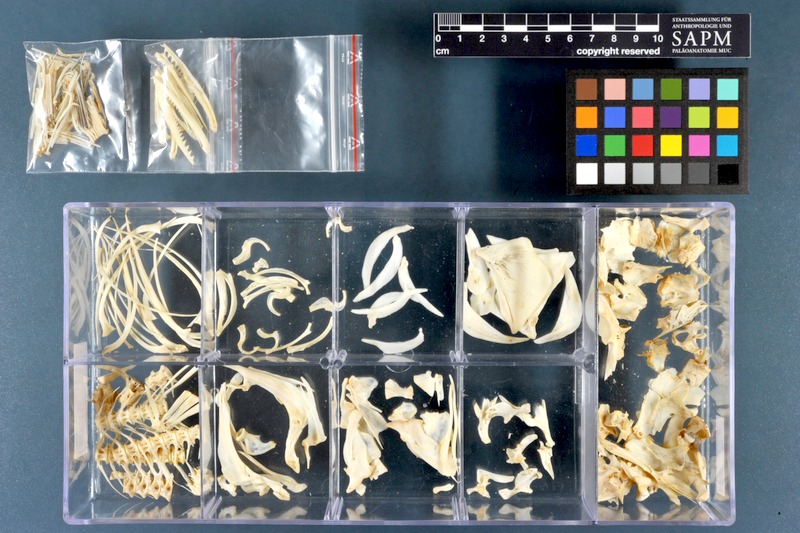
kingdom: Animalia
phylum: Chordata
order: Cypriniformes
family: Cyprinidae
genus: Cyprinus
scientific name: Cyprinus carpio
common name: Common carp
